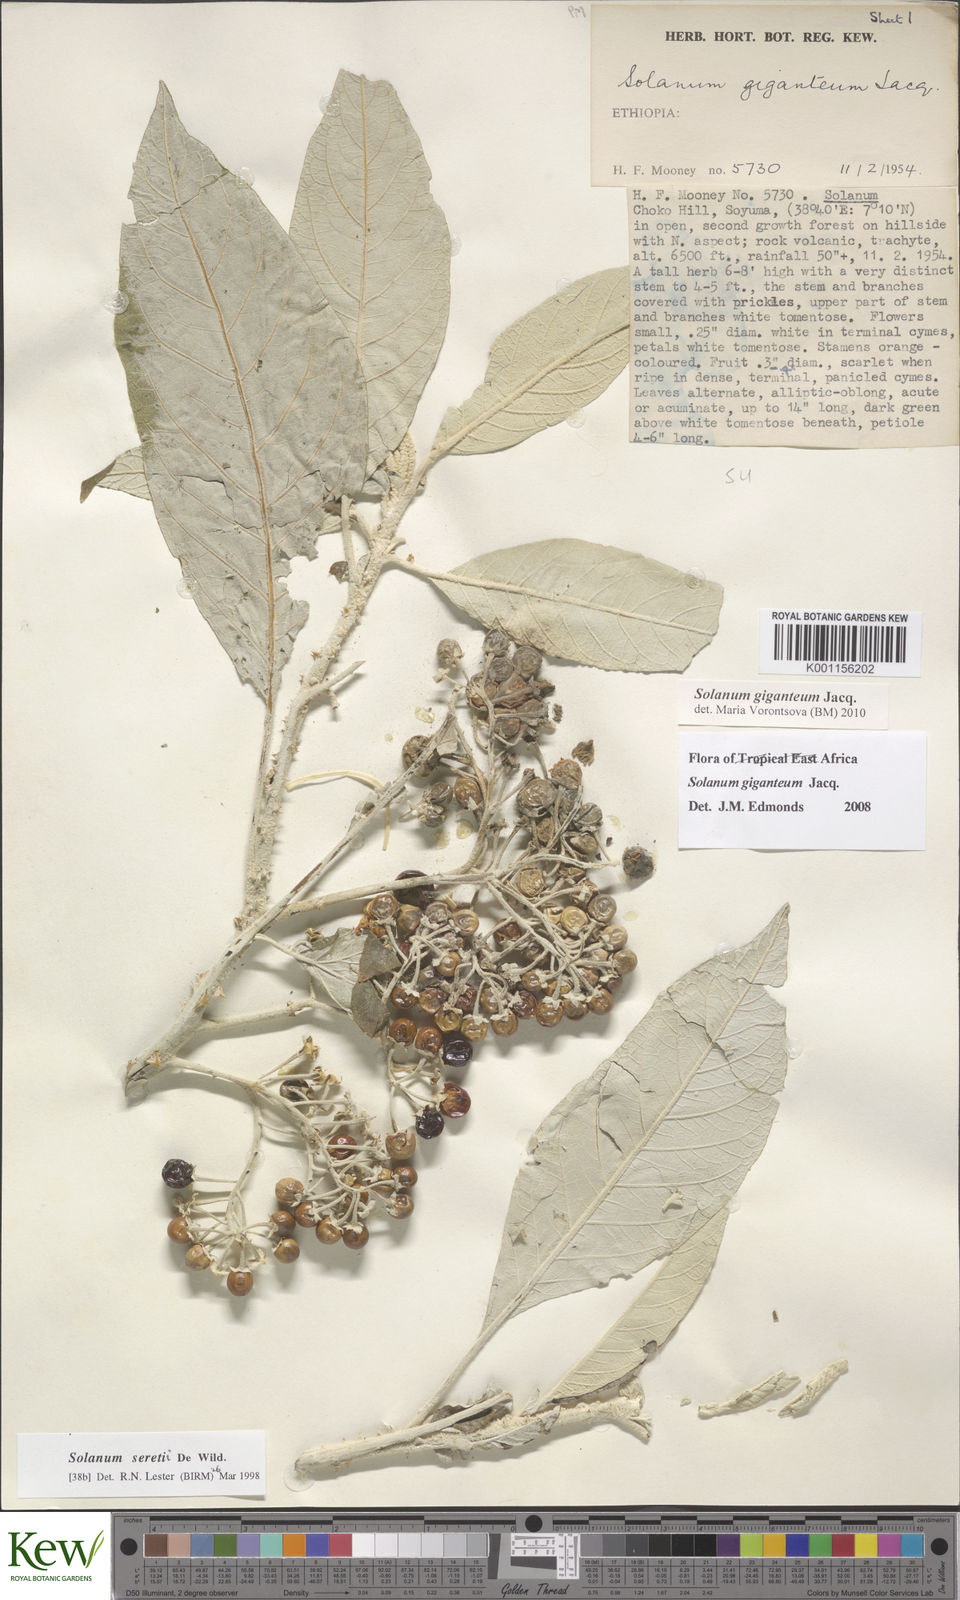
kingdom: Plantae
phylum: Tracheophyta
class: Magnoliopsida
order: Solanales
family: Solanaceae
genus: Solanum
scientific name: Solanum giganteum
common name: Healing-leaf-tree
